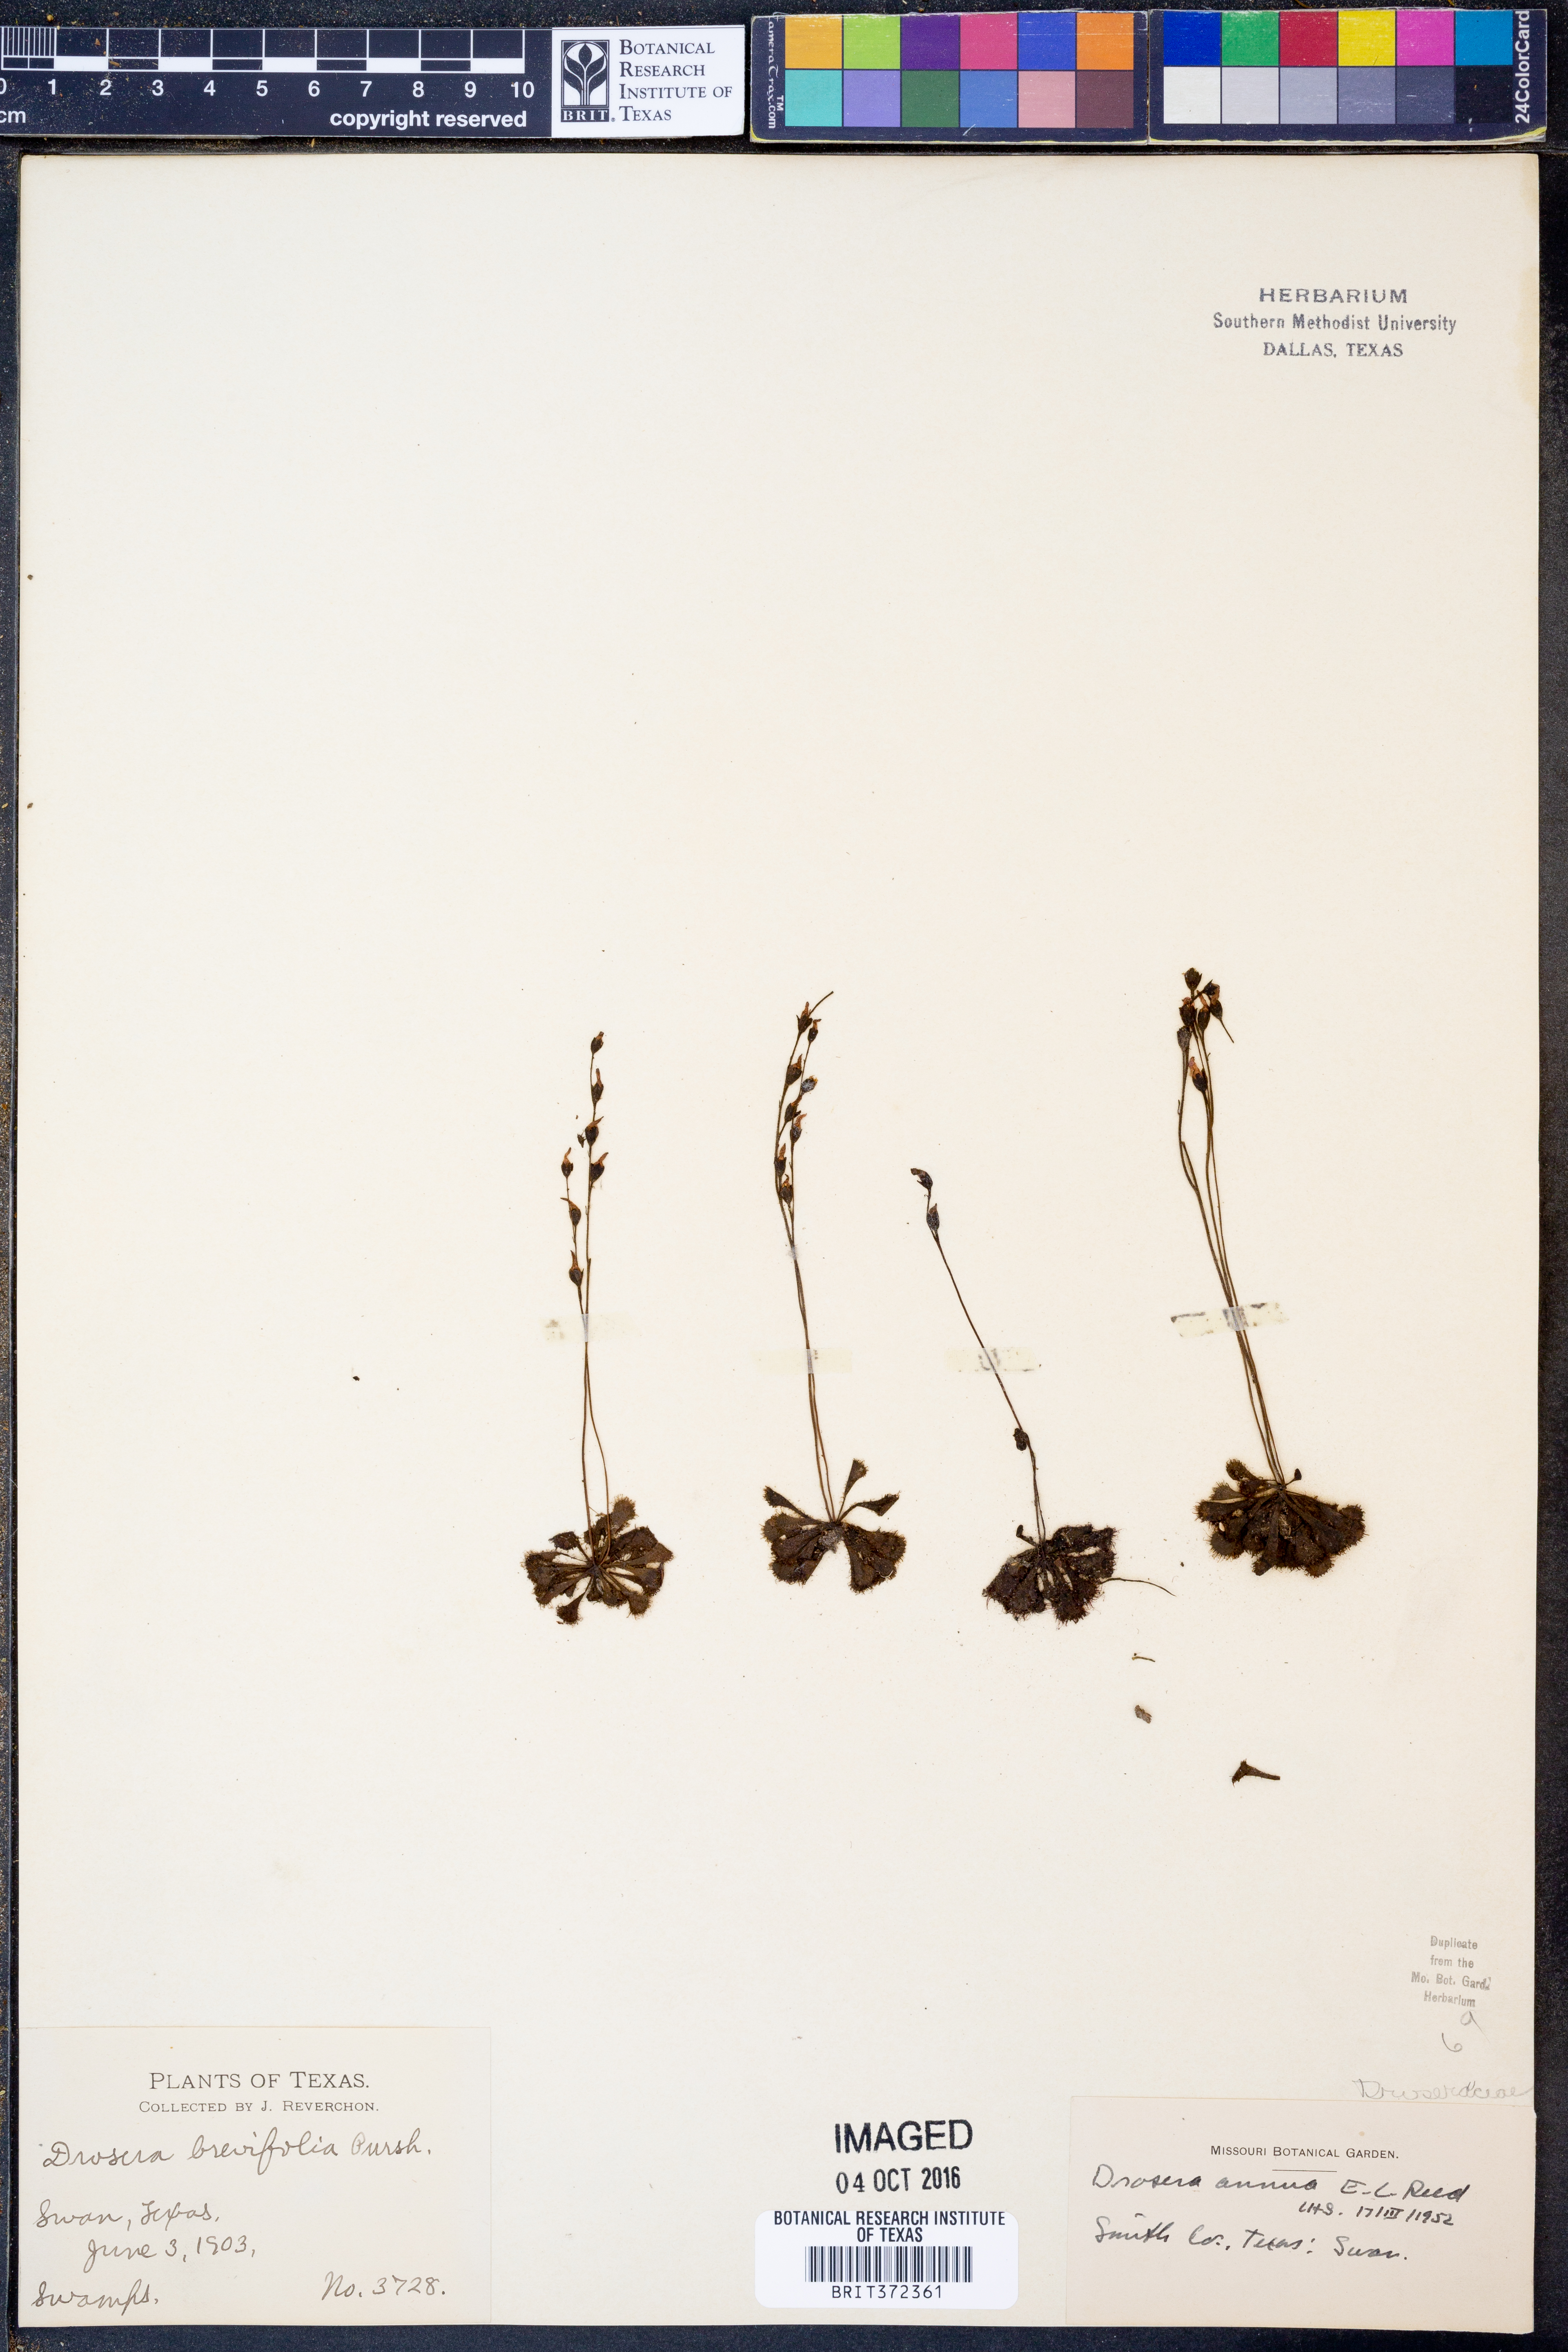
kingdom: Plantae
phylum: Tracheophyta
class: Magnoliopsida
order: Caryophyllales
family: Droseraceae
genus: Drosera
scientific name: Drosera brevifolia
